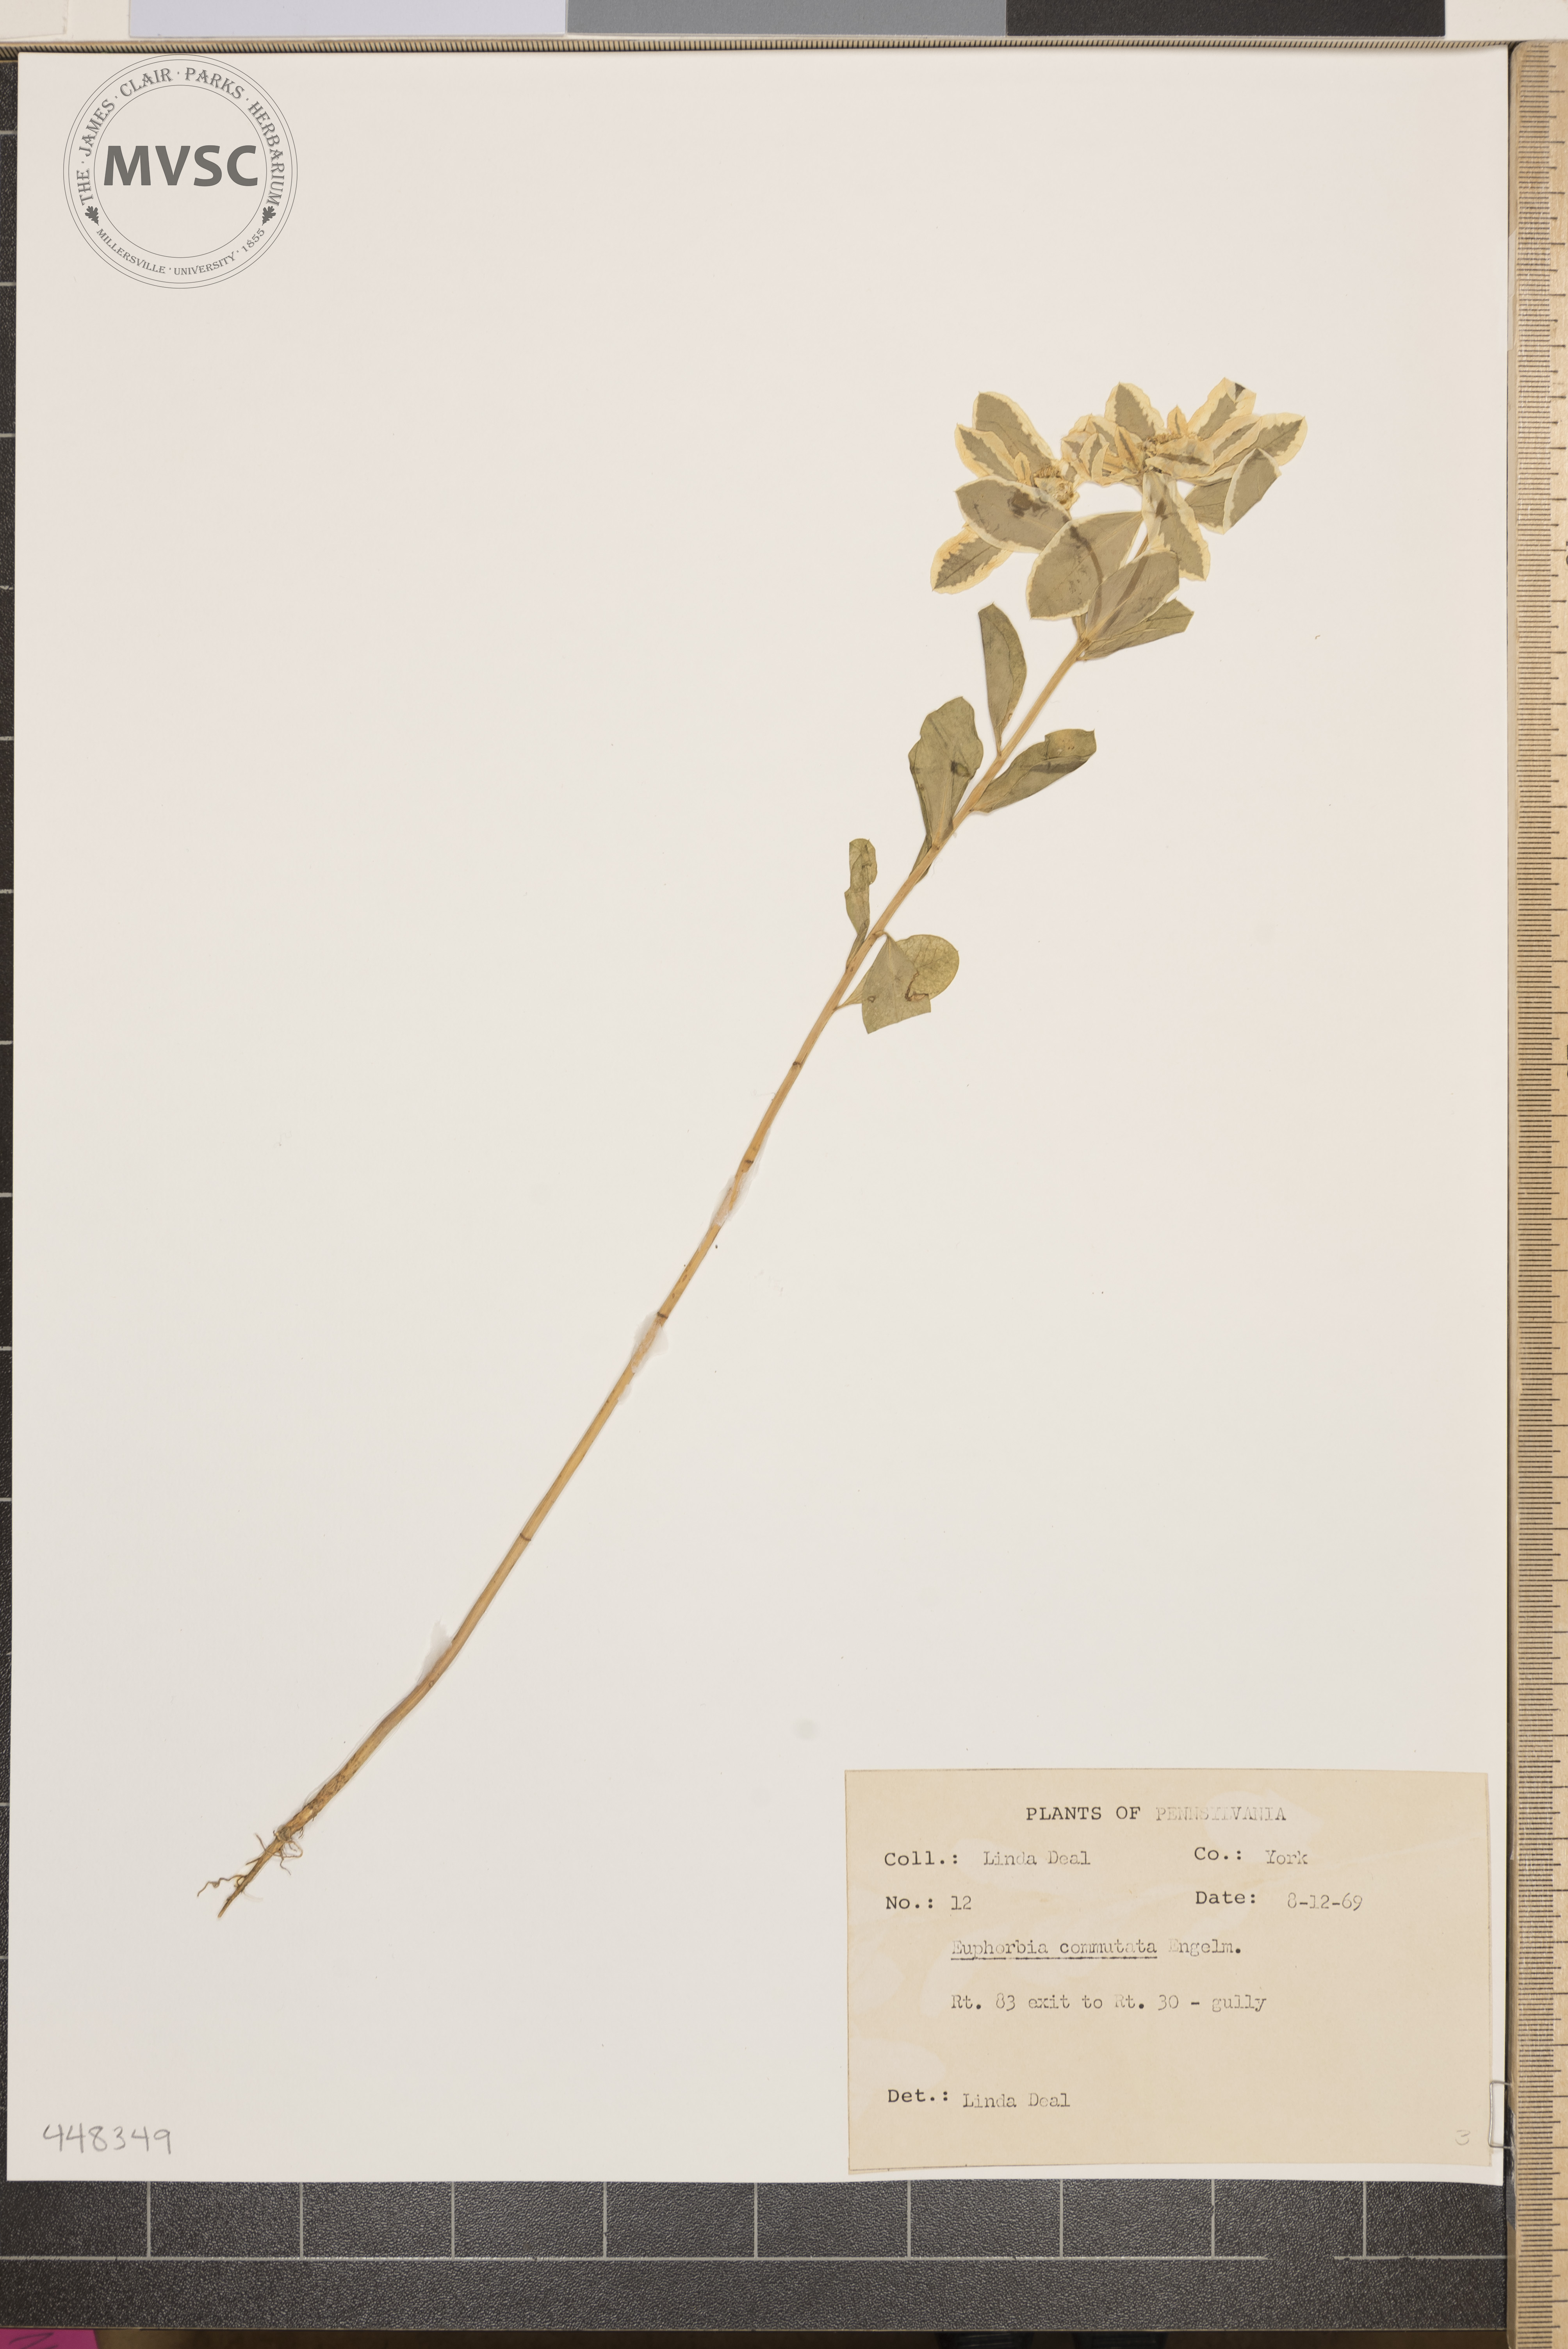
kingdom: Plantae
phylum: Tracheophyta
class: Magnoliopsida
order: Malpighiales
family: Euphorbiaceae
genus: Euphorbia
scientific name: Euphorbia marginata
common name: Ghostweed
